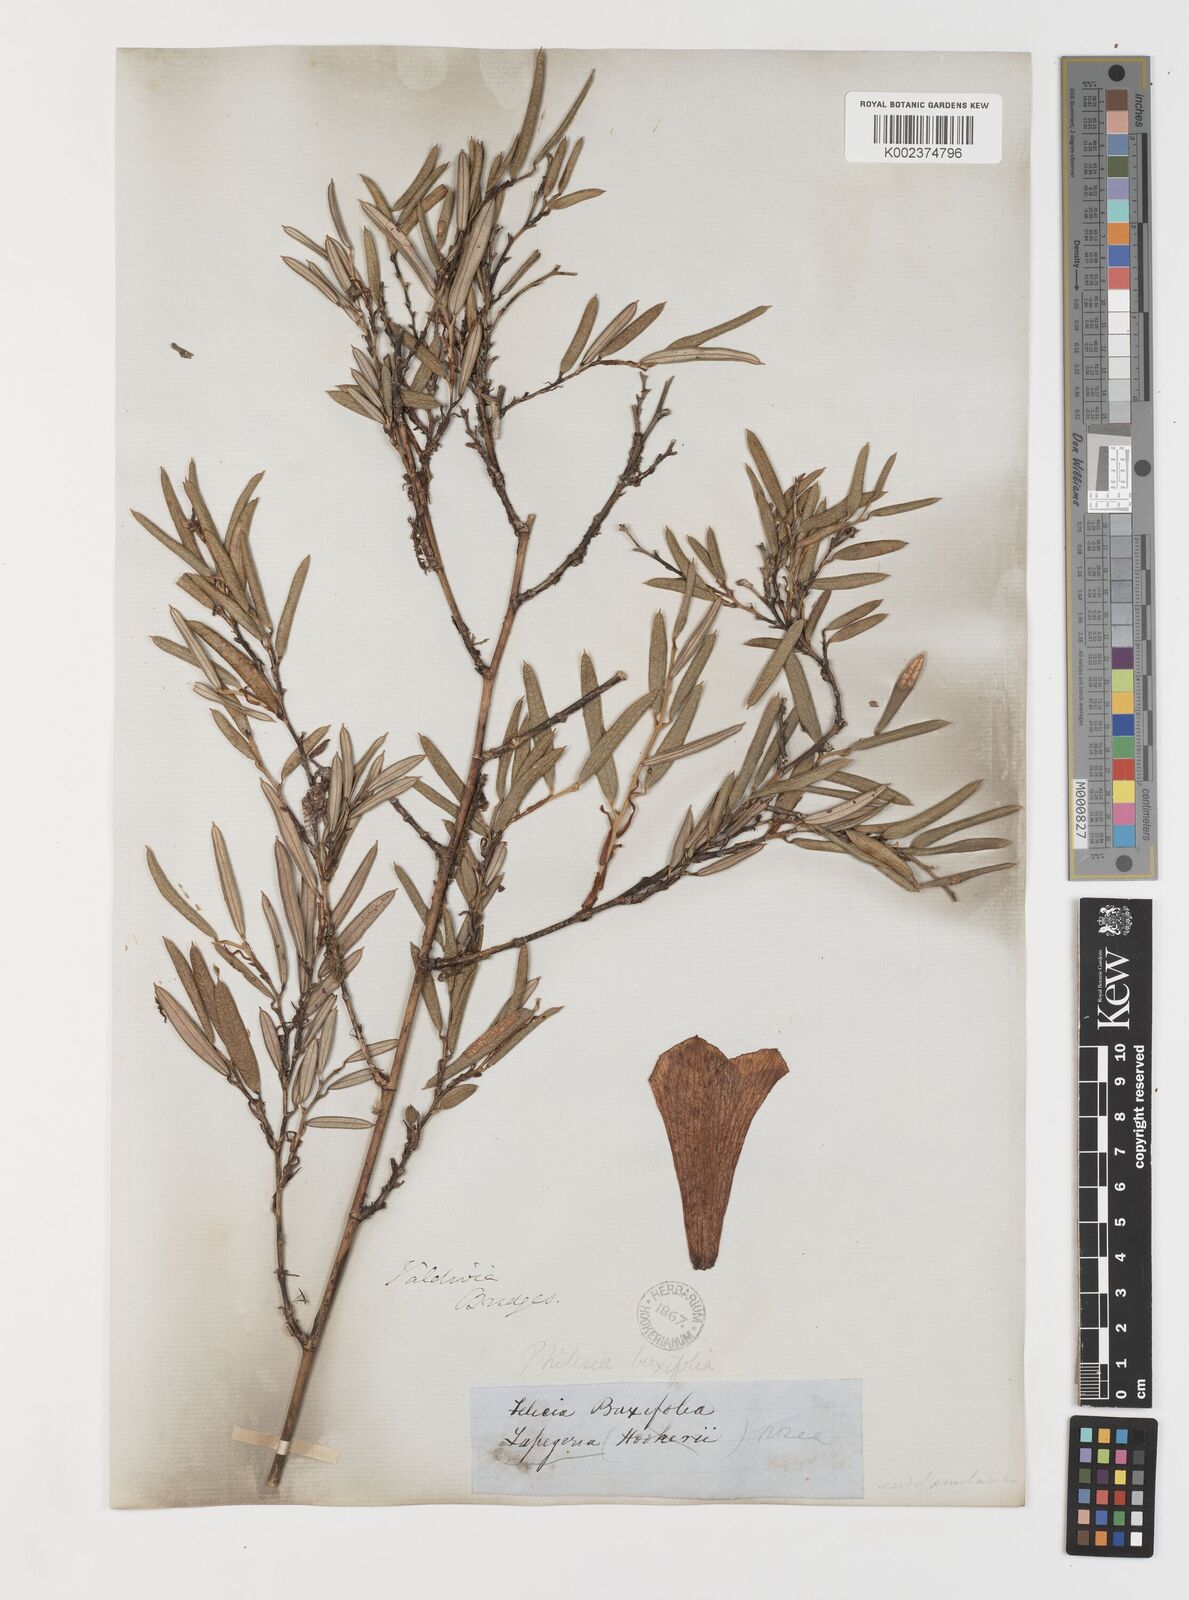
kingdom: Plantae
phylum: Tracheophyta
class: Liliopsida
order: Liliales
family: Philesiaceae
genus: Philesia
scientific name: Philesia magellanica
